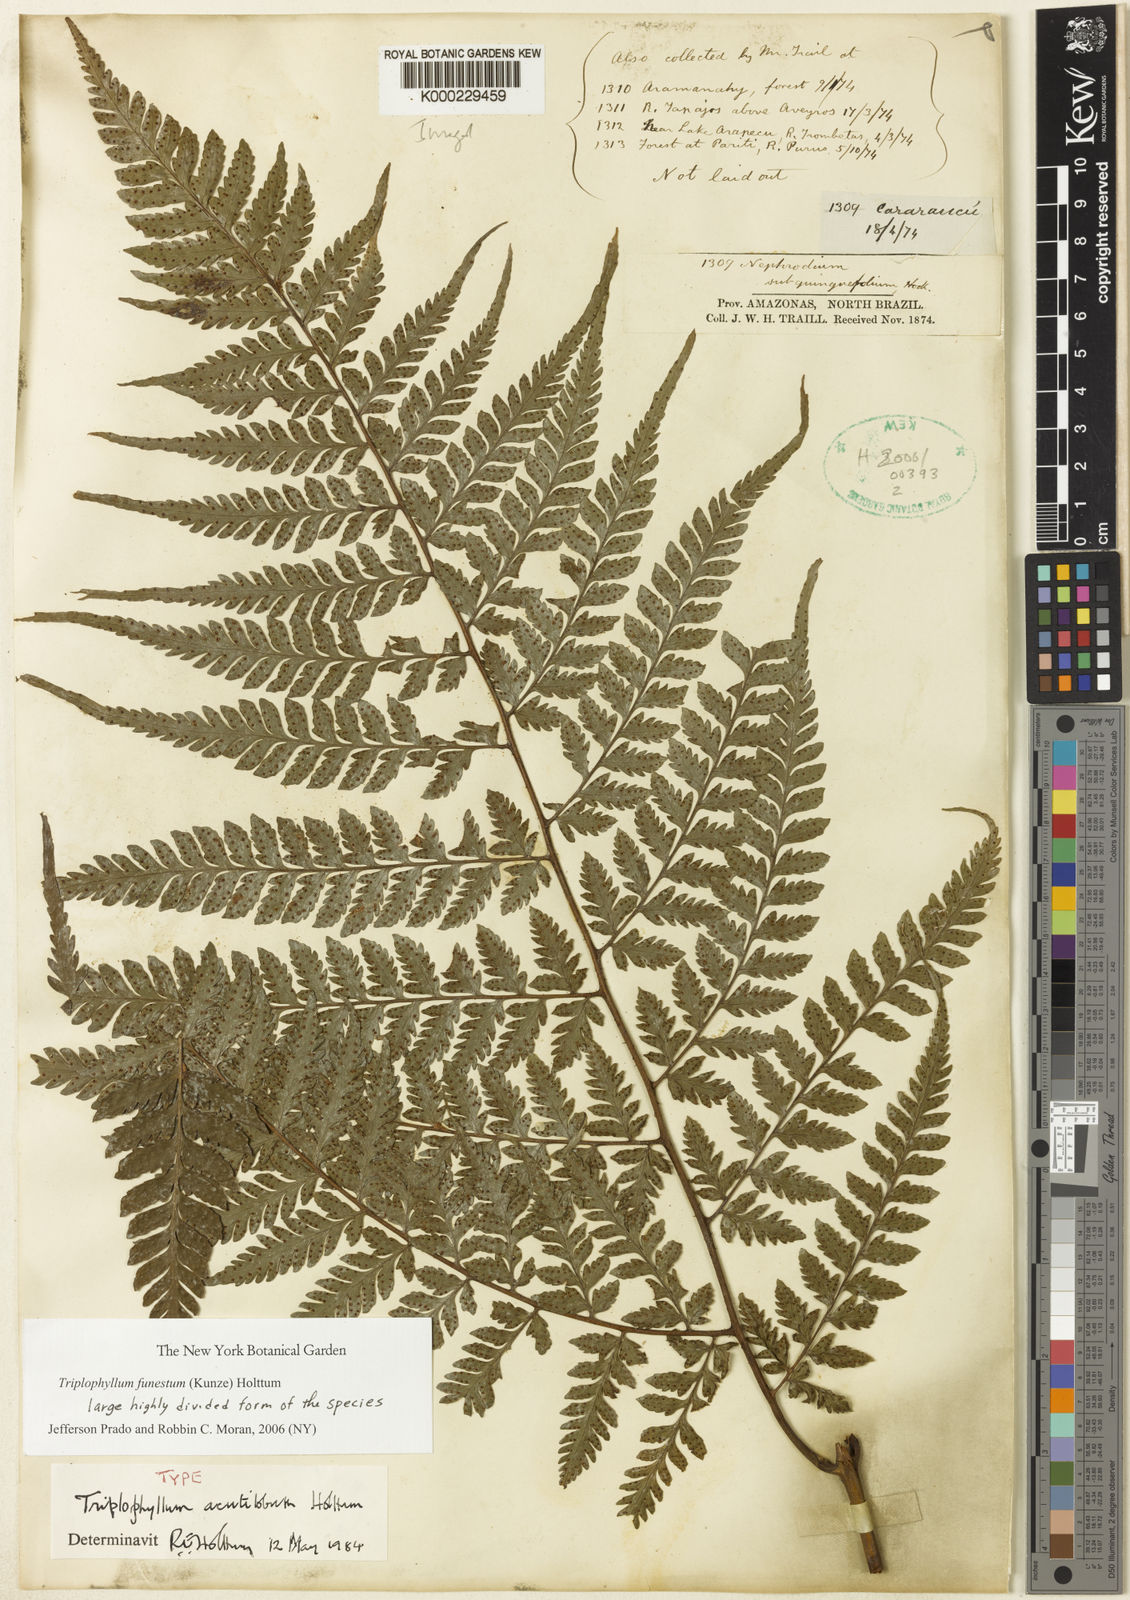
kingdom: Plantae
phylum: Tracheophyta
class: Polypodiopsida
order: Polypodiales
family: Tectariaceae
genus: Triplophyllum
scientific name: Triplophyllum funestum
